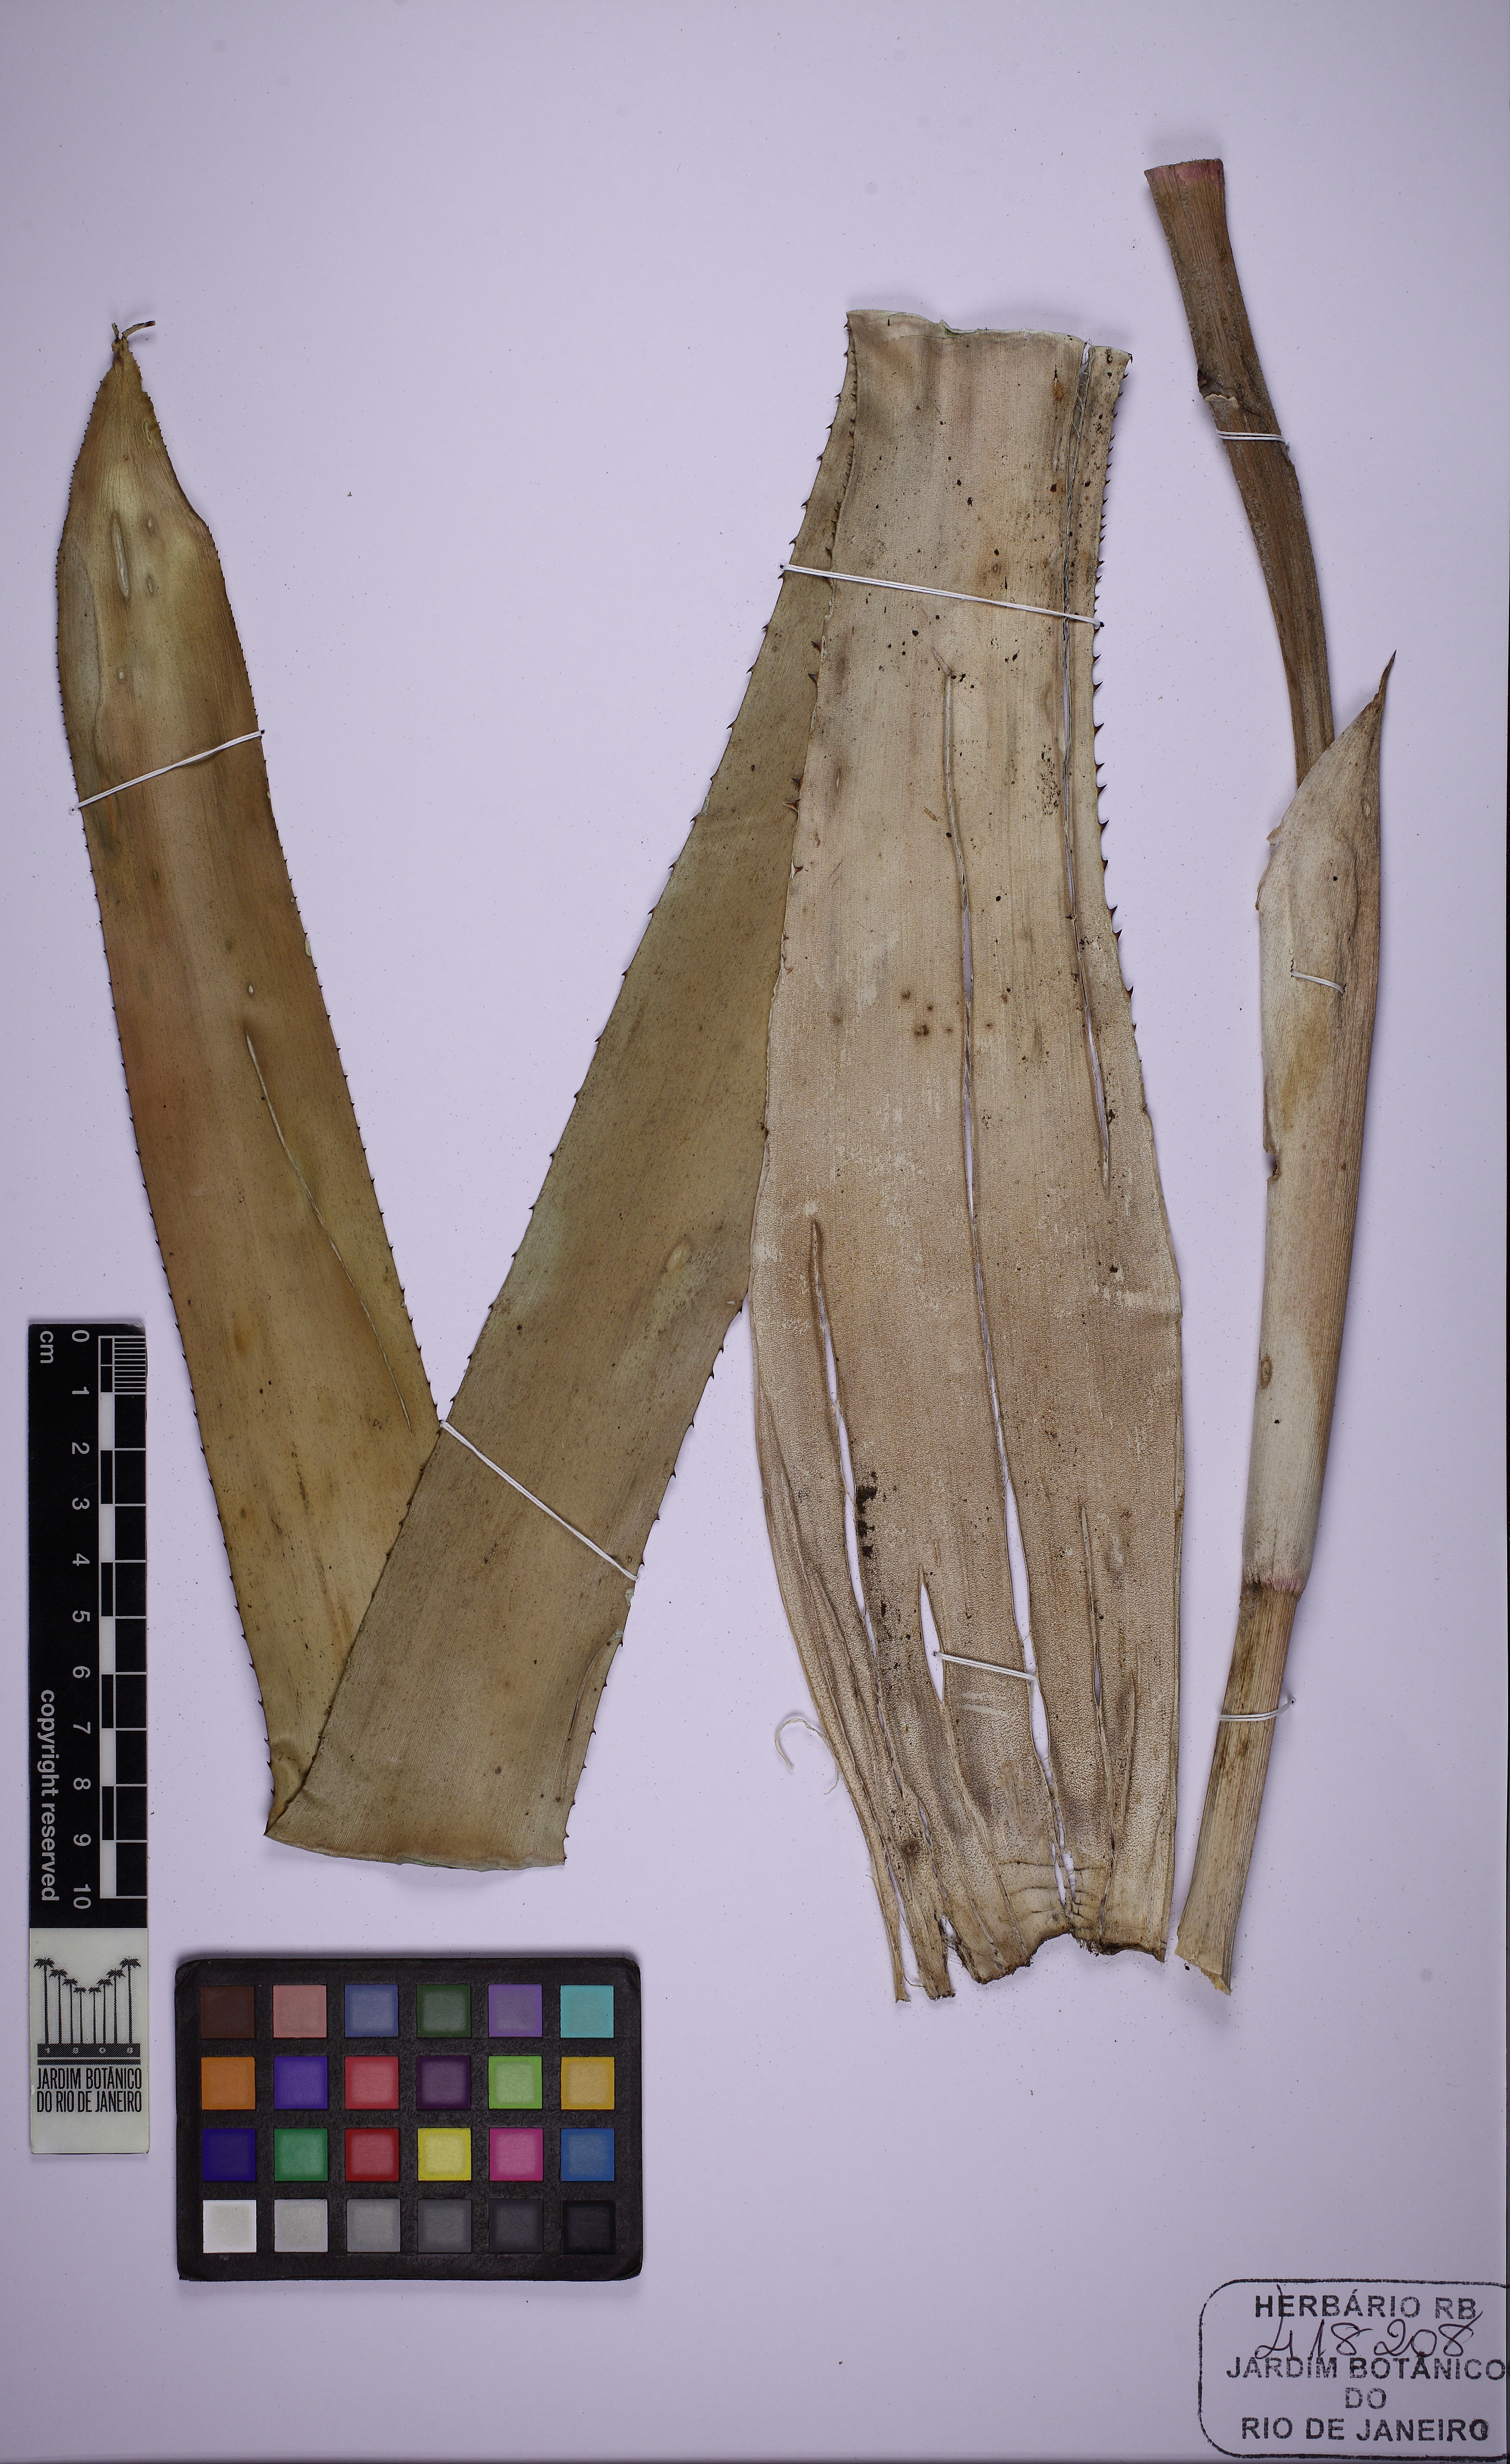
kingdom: Plantae
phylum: Tracheophyta
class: Liliopsida
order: Poales
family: Bromeliaceae
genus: Aechmea
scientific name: Aechmea
